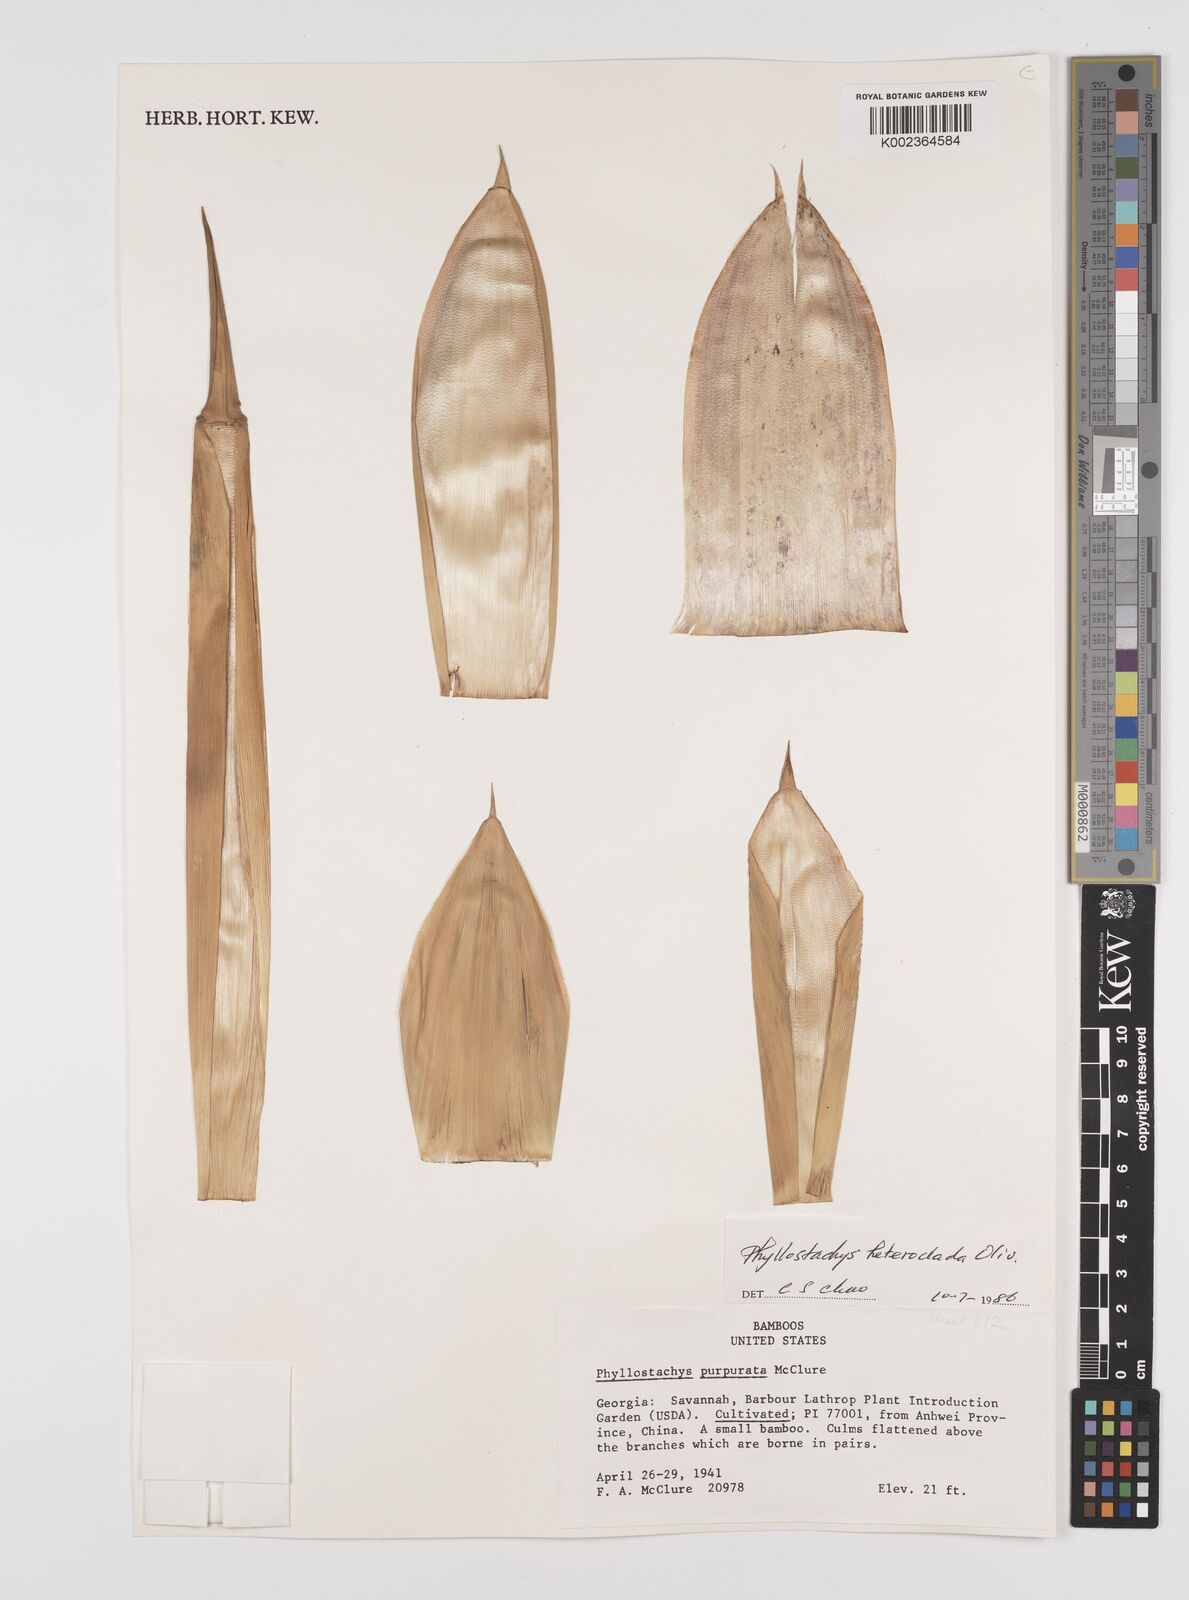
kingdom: Plantae
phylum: Tracheophyta
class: Liliopsida
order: Poales
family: Poaceae
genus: Phyllostachys
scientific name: Phyllostachys heteroclada
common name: Fishscale bamboo
